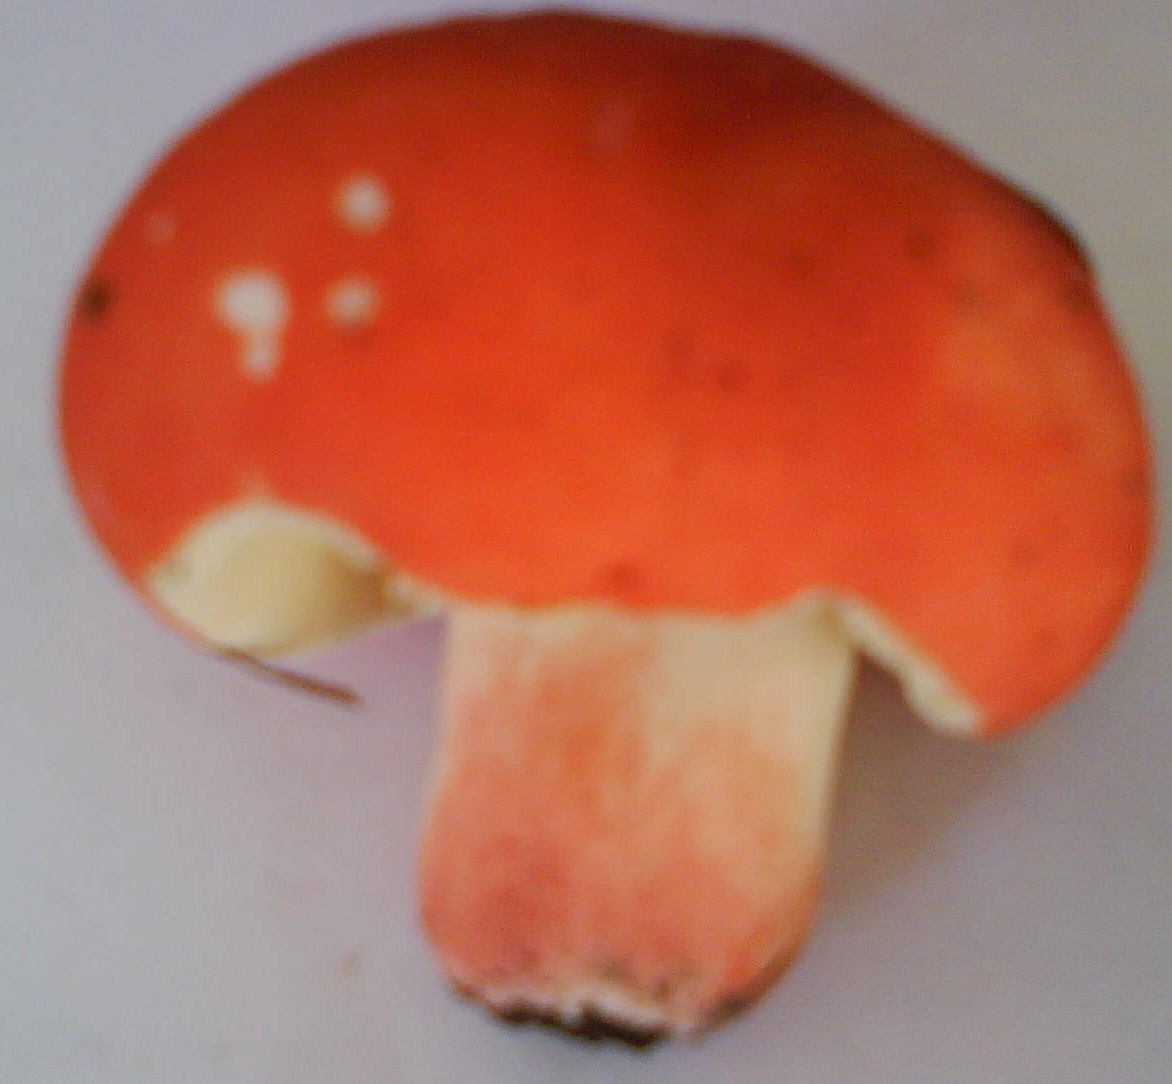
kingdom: Fungi
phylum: Basidiomycota
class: Agaricomycetes
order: Russulales
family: Russulaceae
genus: Russula
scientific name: Russula rosea
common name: fastkødet skørhat
